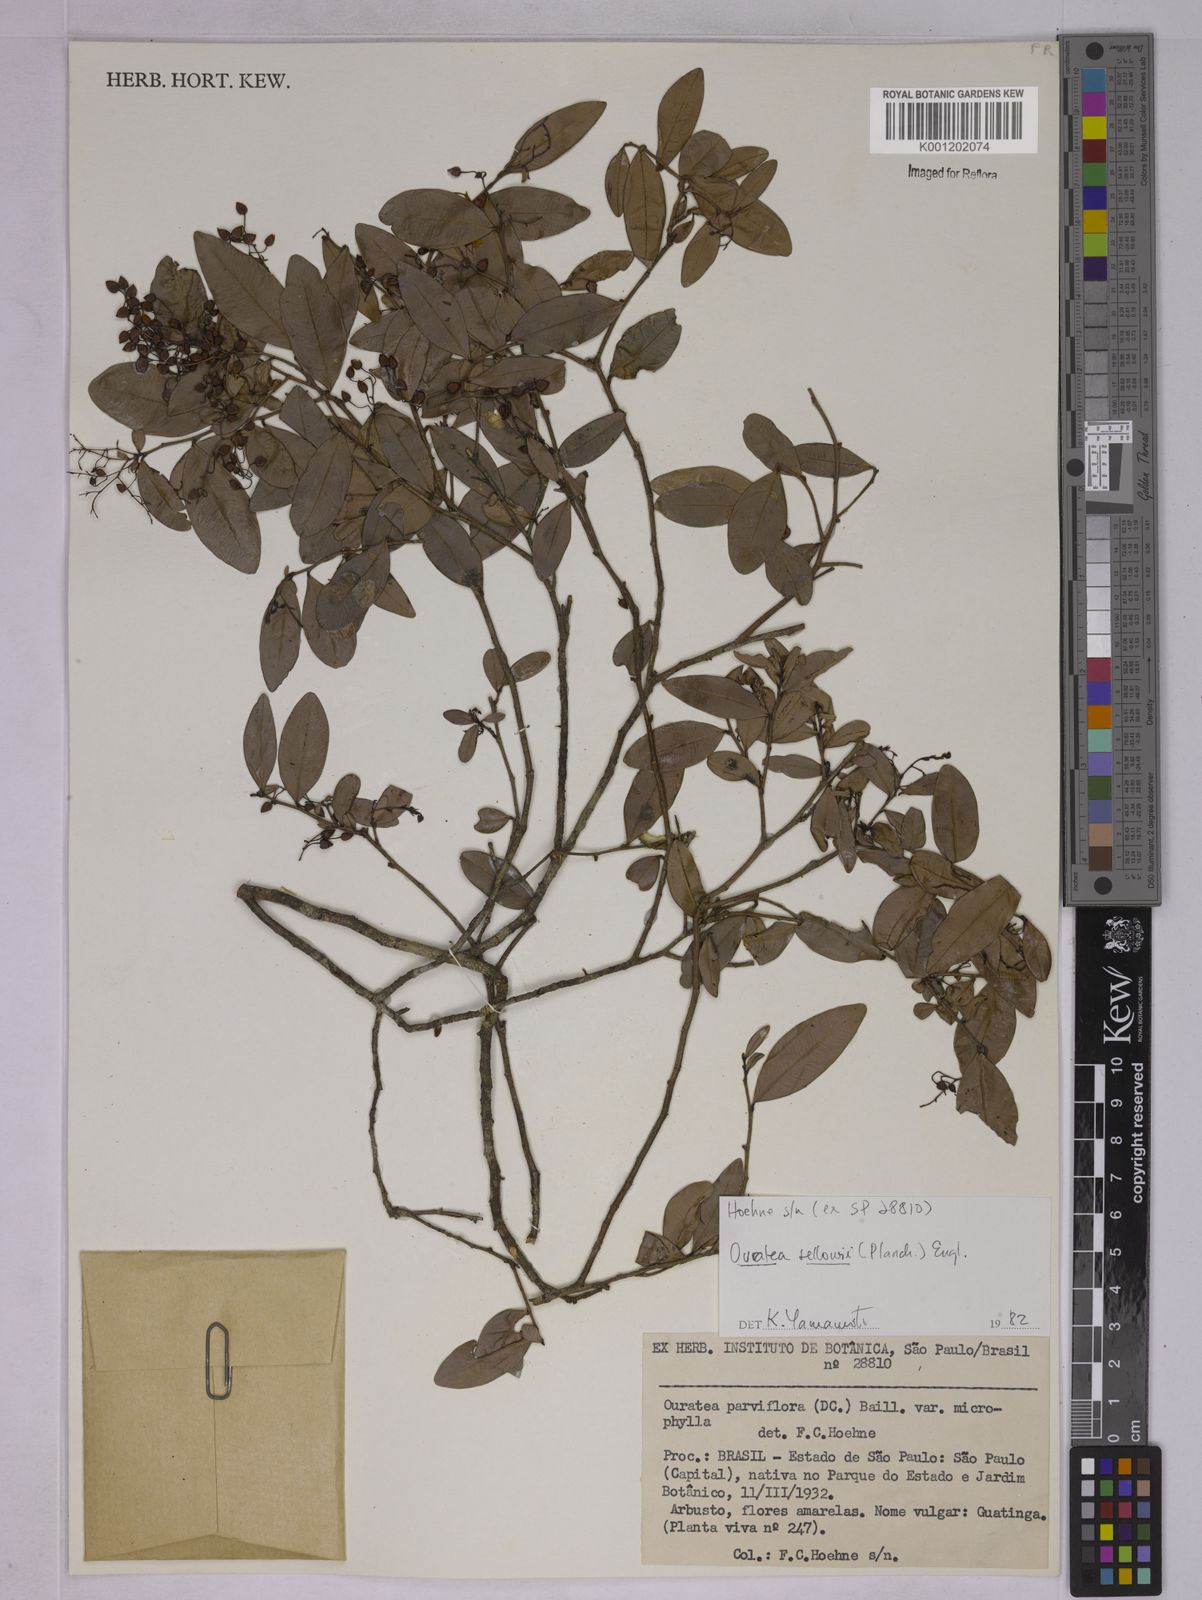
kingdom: Plantae
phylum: Tracheophyta
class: Magnoliopsida
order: Malpighiales
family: Ochnaceae
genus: Ouratea
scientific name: Ouratea sellowii
